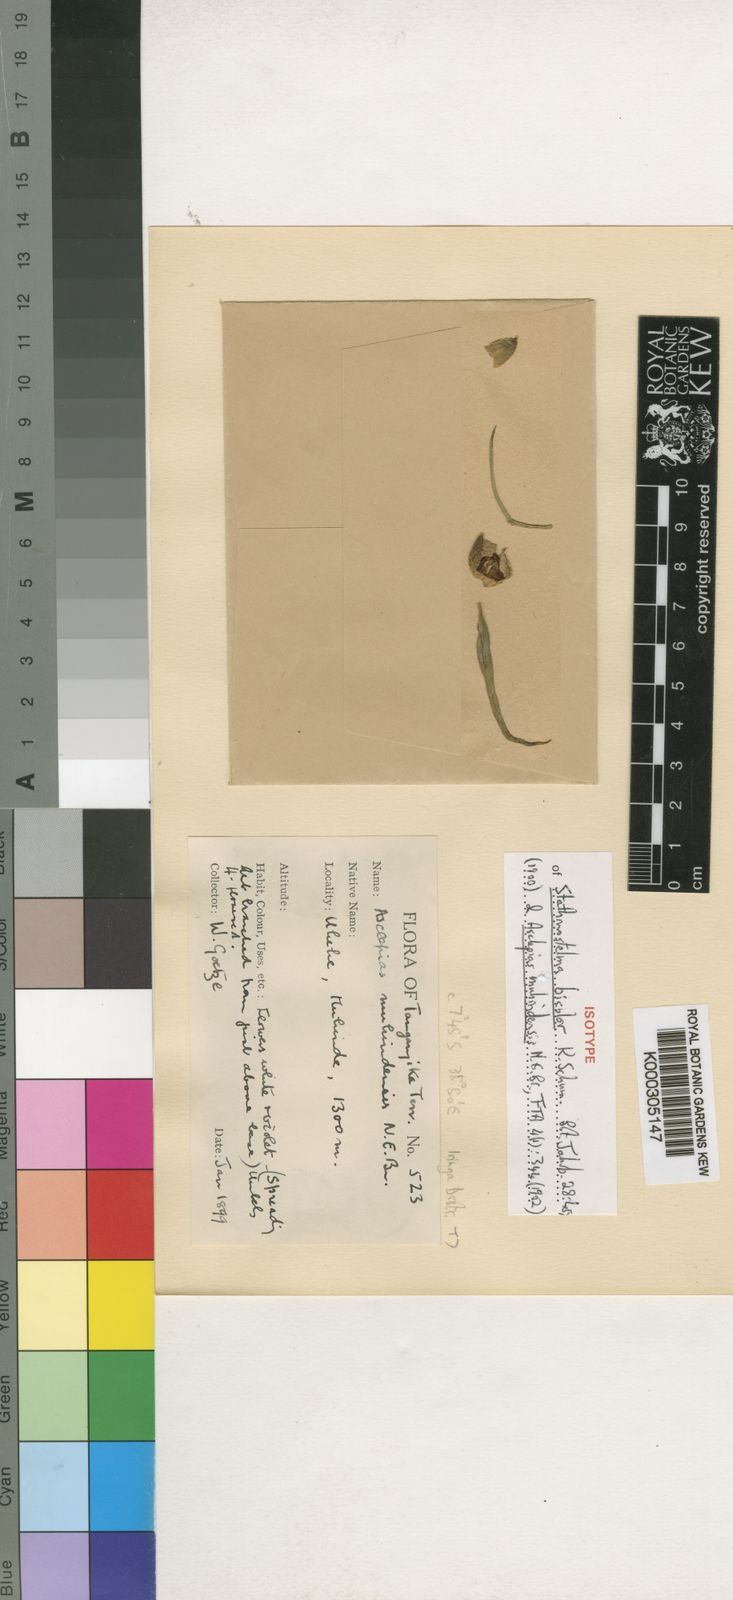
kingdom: Plantae
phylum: Tracheophyta
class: Magnoliopsida
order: Gentianales
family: Apocynaceae
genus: Stathmostelma
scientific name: Stathmostelma gigantiflorum
